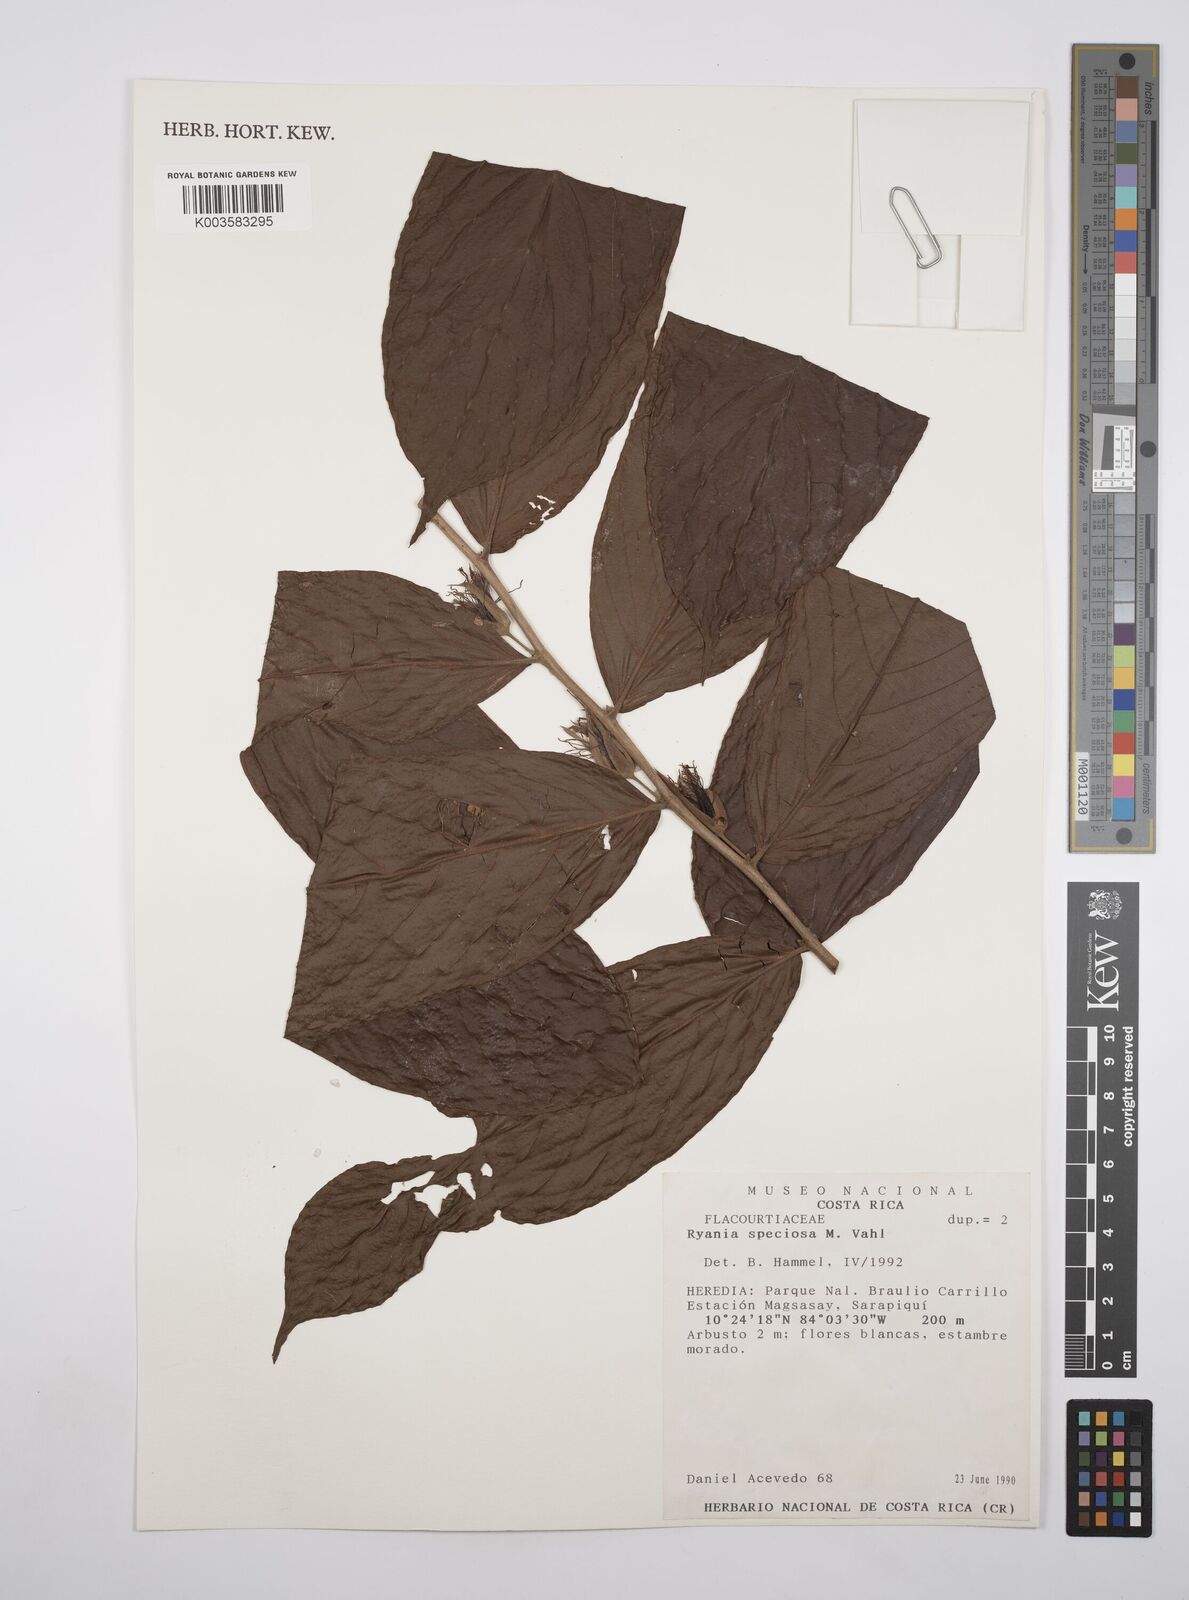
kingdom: Plantae
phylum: Tracheophyta
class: Magnoliopsida
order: Malpighiales
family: Salicaceae
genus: Ryania
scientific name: Ryania speciosa
